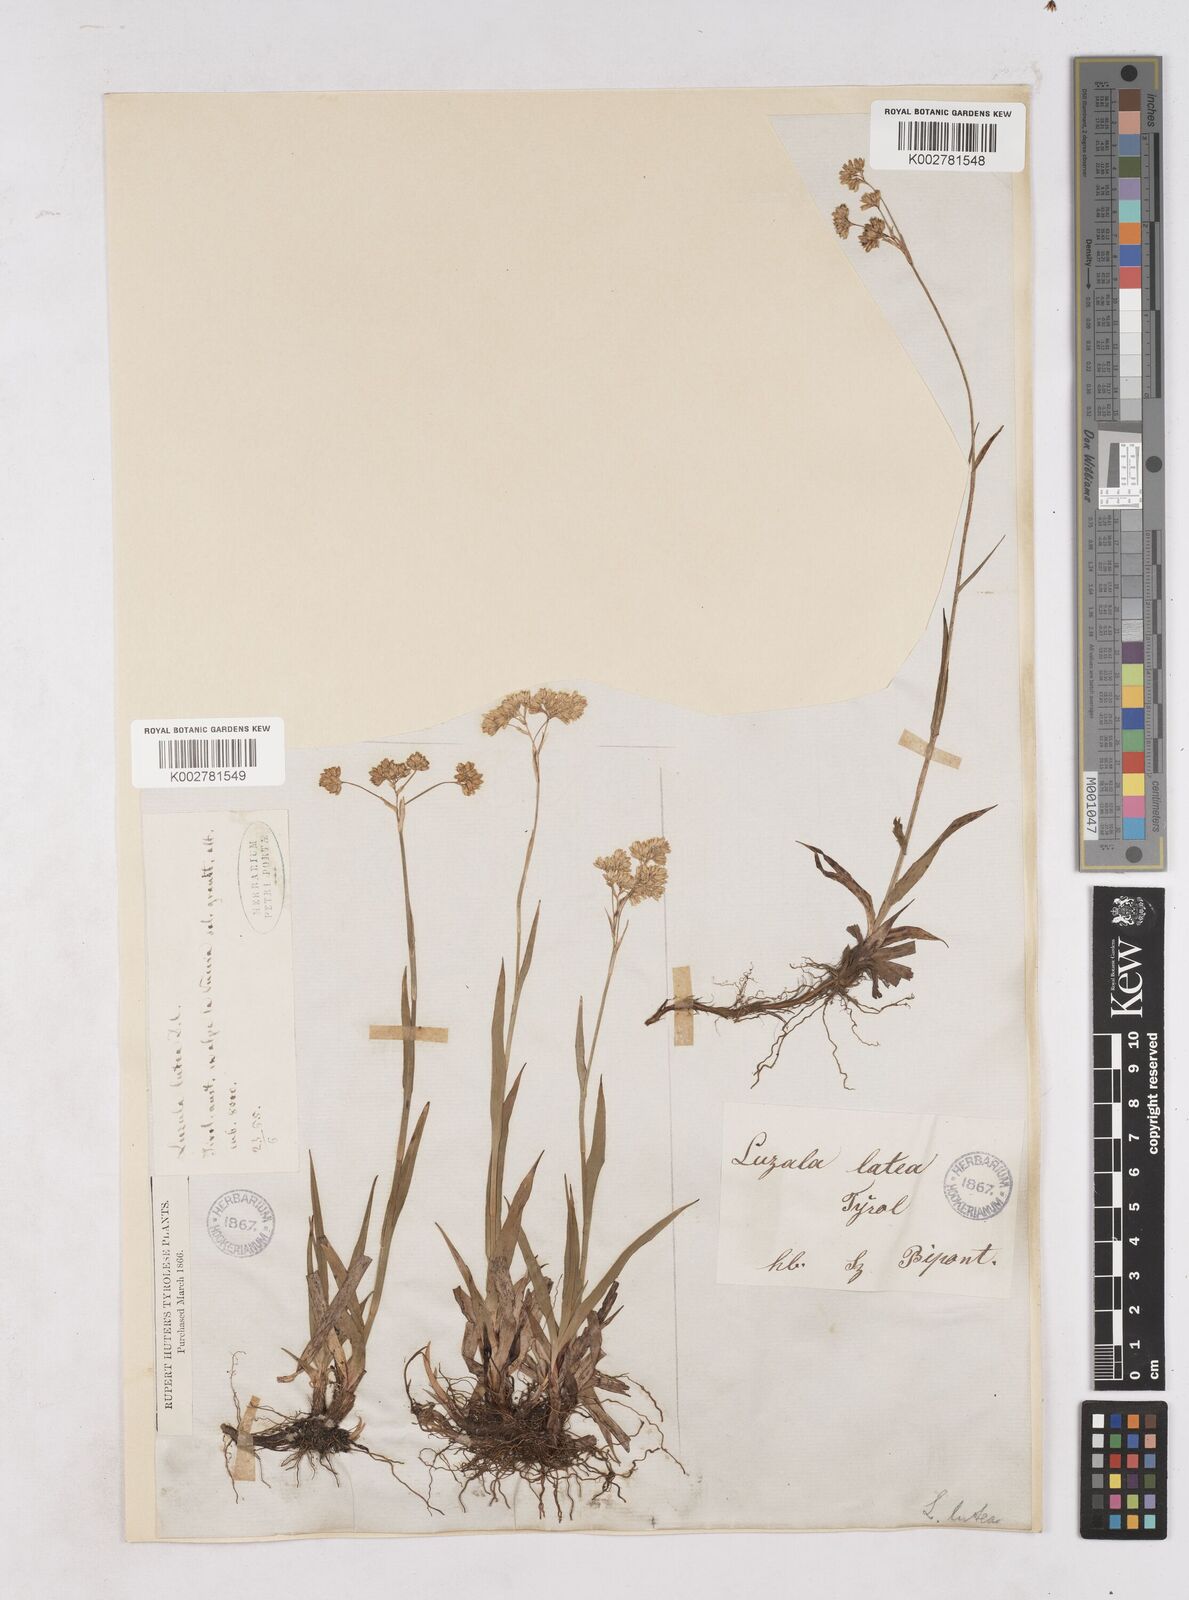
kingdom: Plantae
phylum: Tracheophyta
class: Liliopsida
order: Poales
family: Juncaceae
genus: Luzula
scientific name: Luzula lutea
